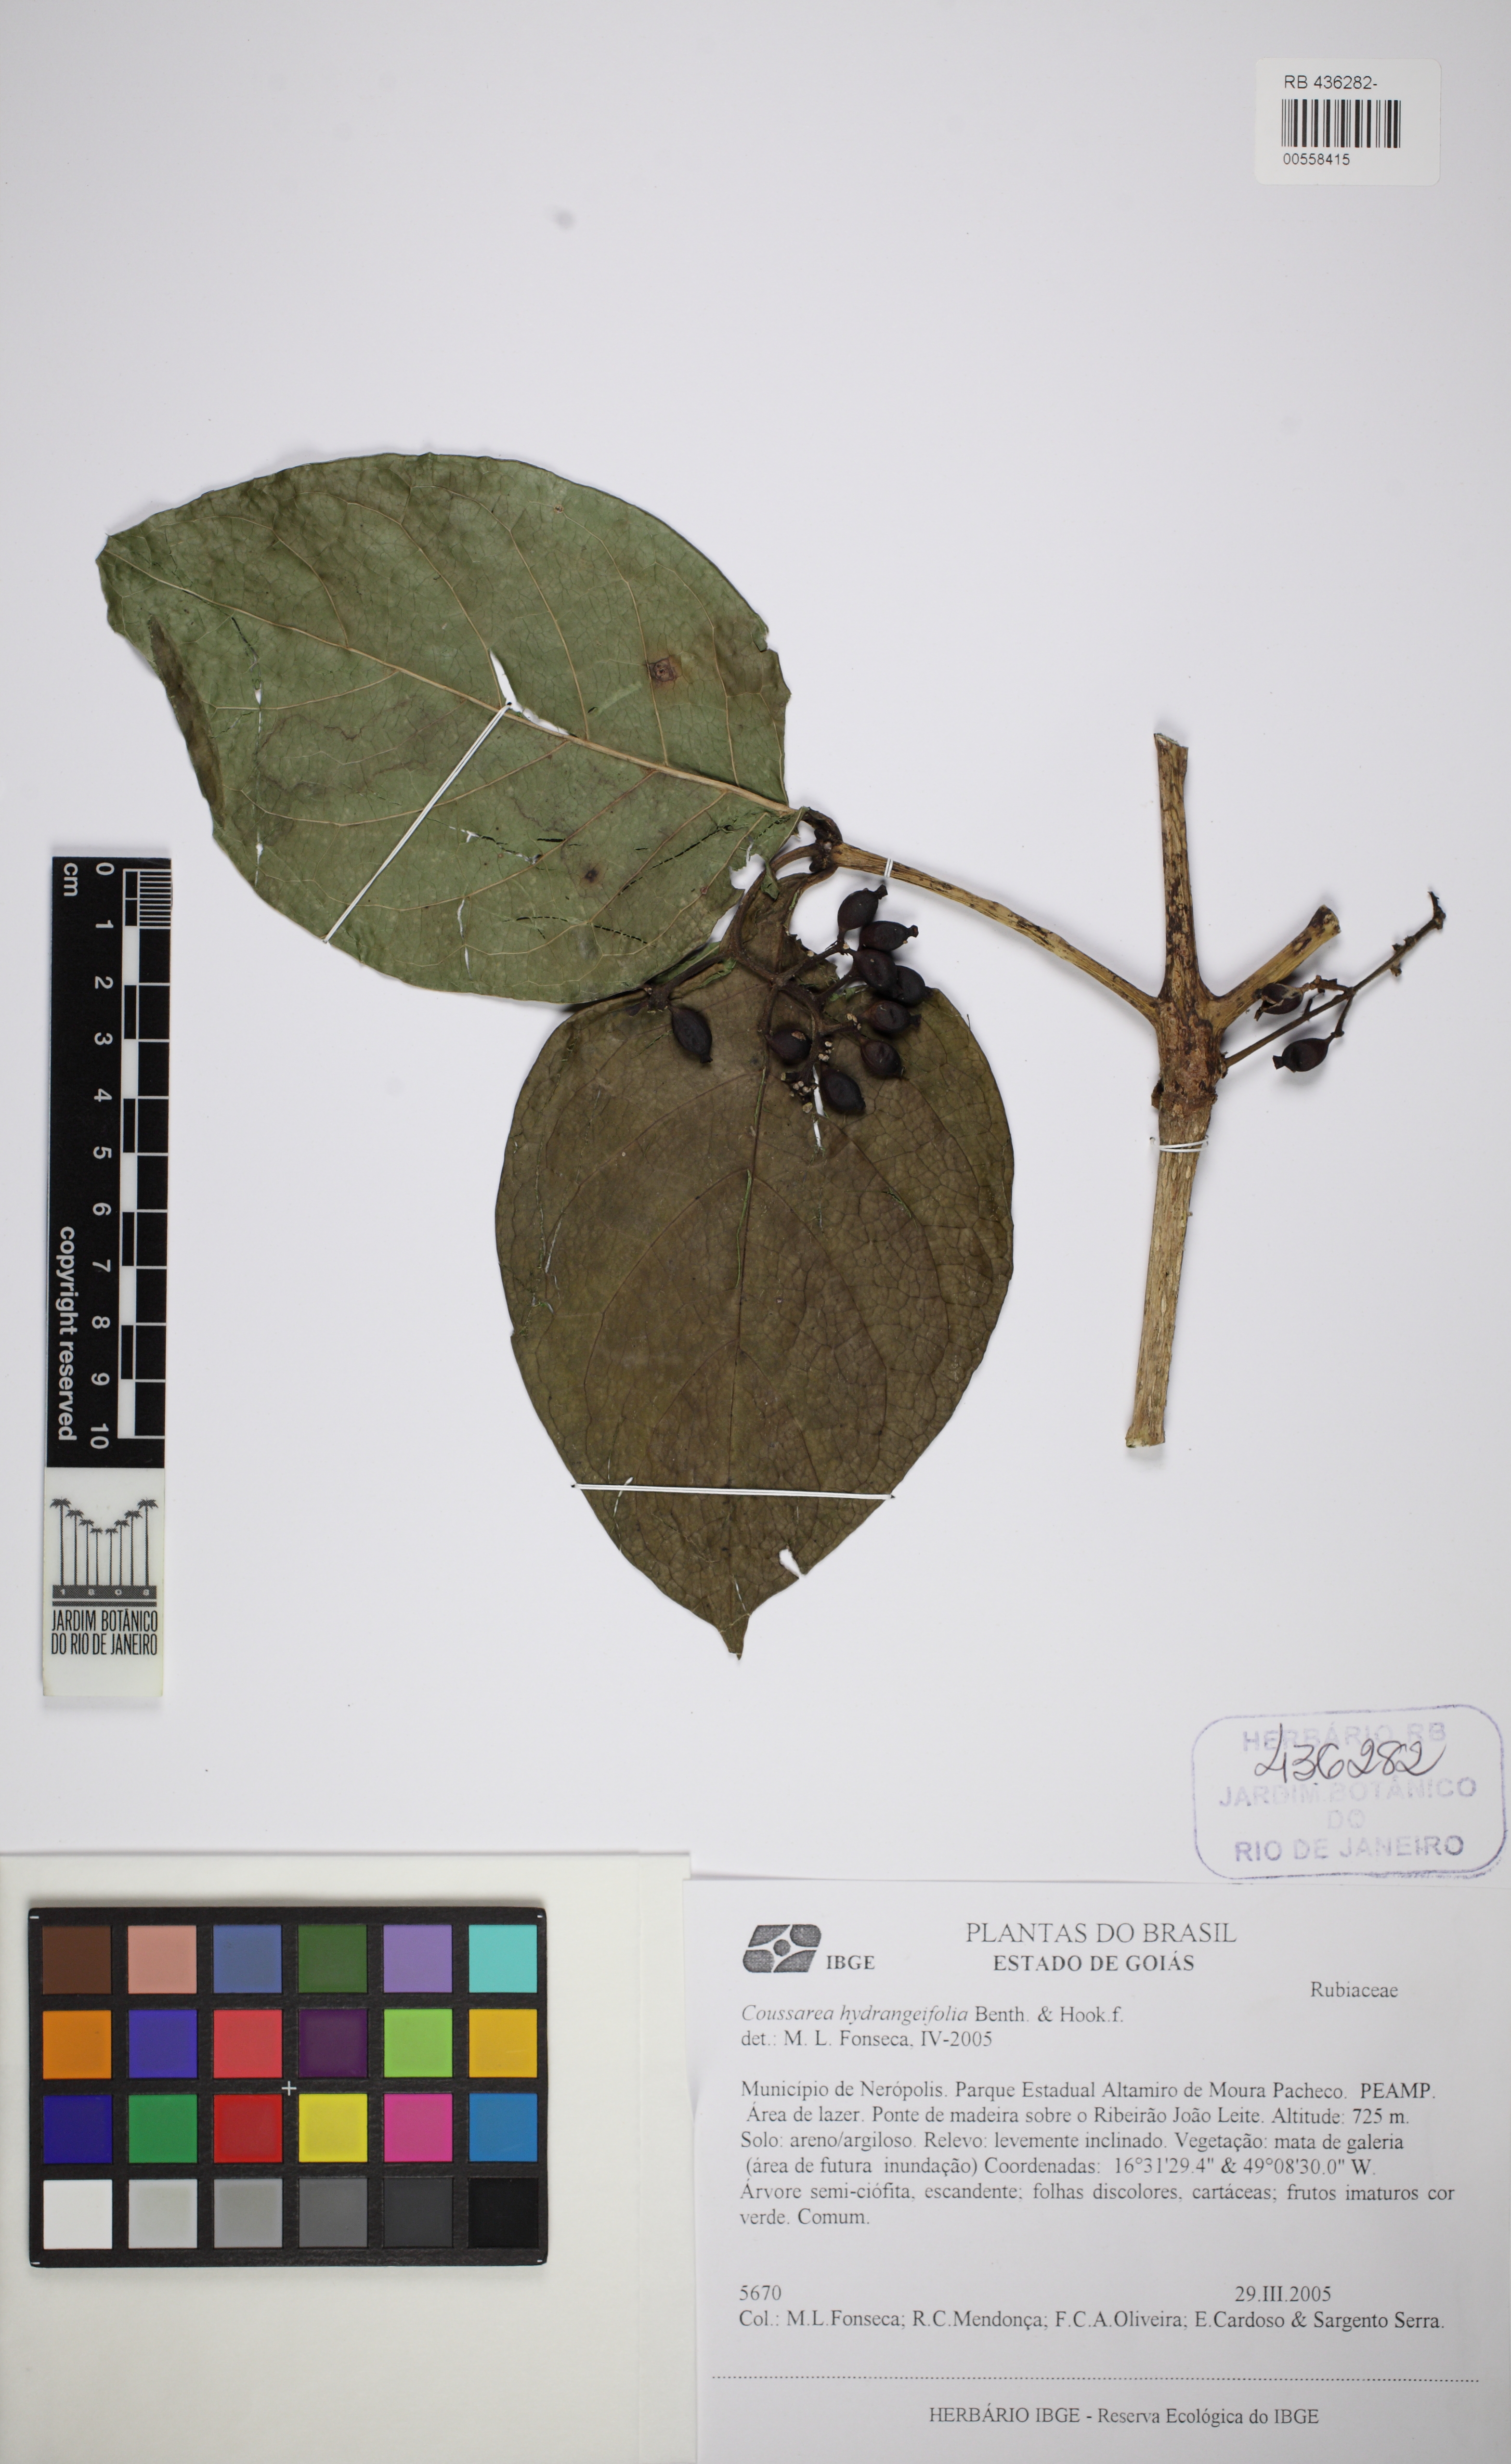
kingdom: Plantae
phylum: Tracheophyta
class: Magnoliopsida
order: Gentianales
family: Rubiaceae
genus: Coussarea
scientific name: Coussarea hydrangeifolia
